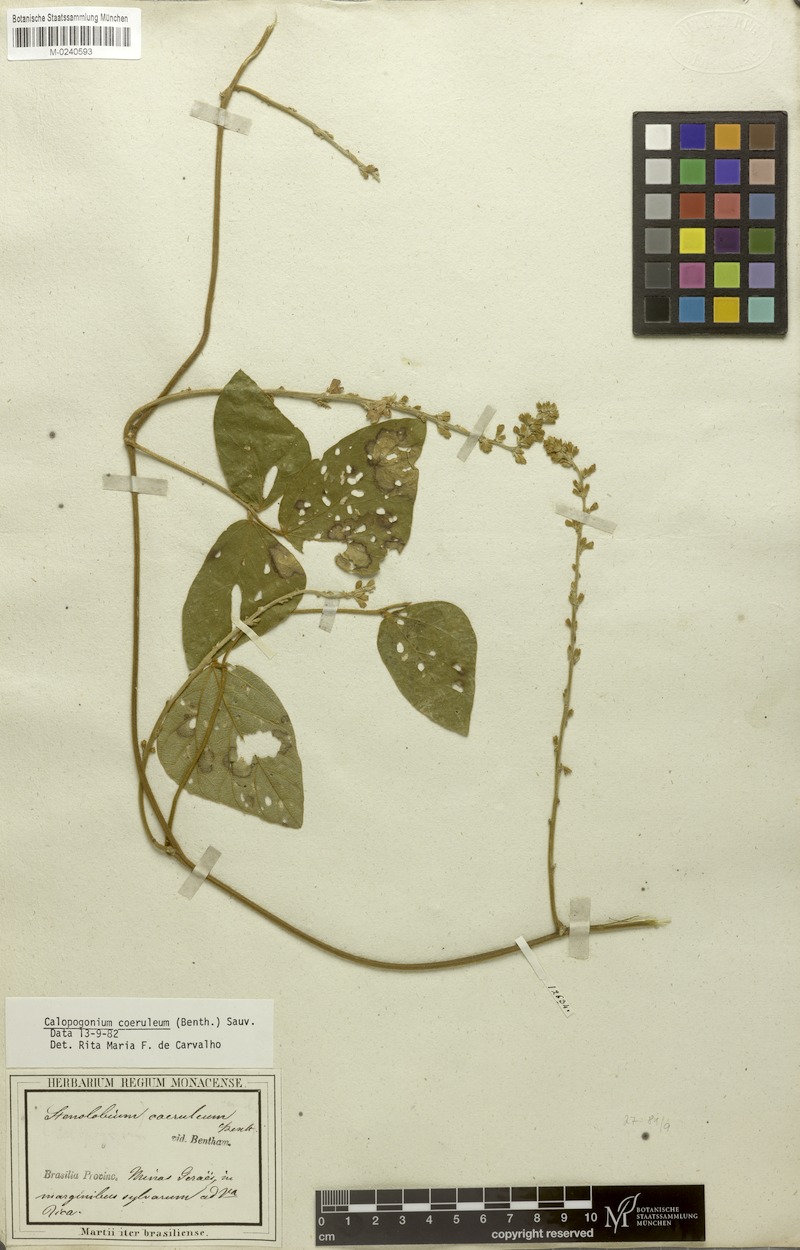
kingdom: Plantae
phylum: Tracheophyta
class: Magnoliopsida
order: Fabales
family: Fabaceae
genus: Calopogonium
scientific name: Calopogonium caeruleum
